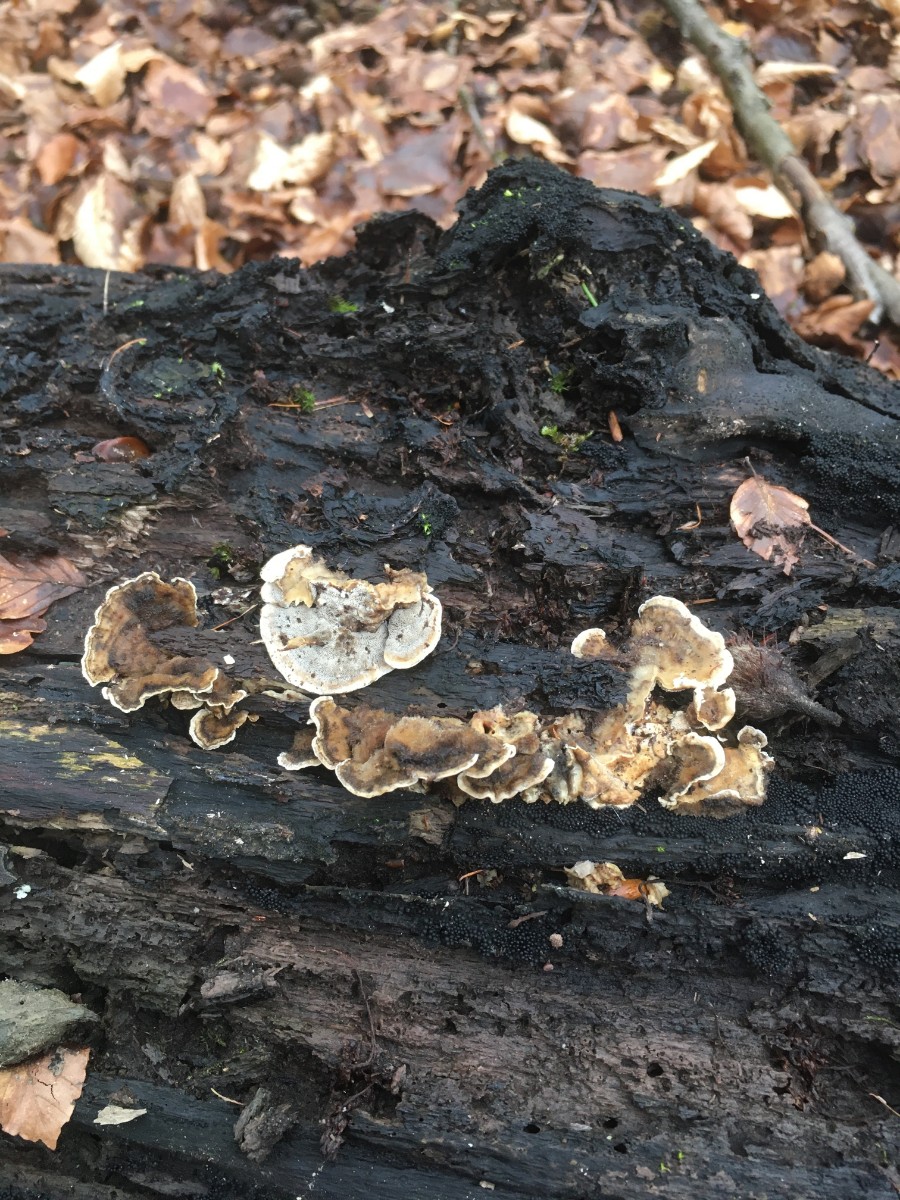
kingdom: Fungi
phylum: Basidiomycota
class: Agaricomycetes
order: Polyporales
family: Phanerochaetaceae
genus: Bjerkandera
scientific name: Bjerkandera adusta
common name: sveden sodporesvamp
